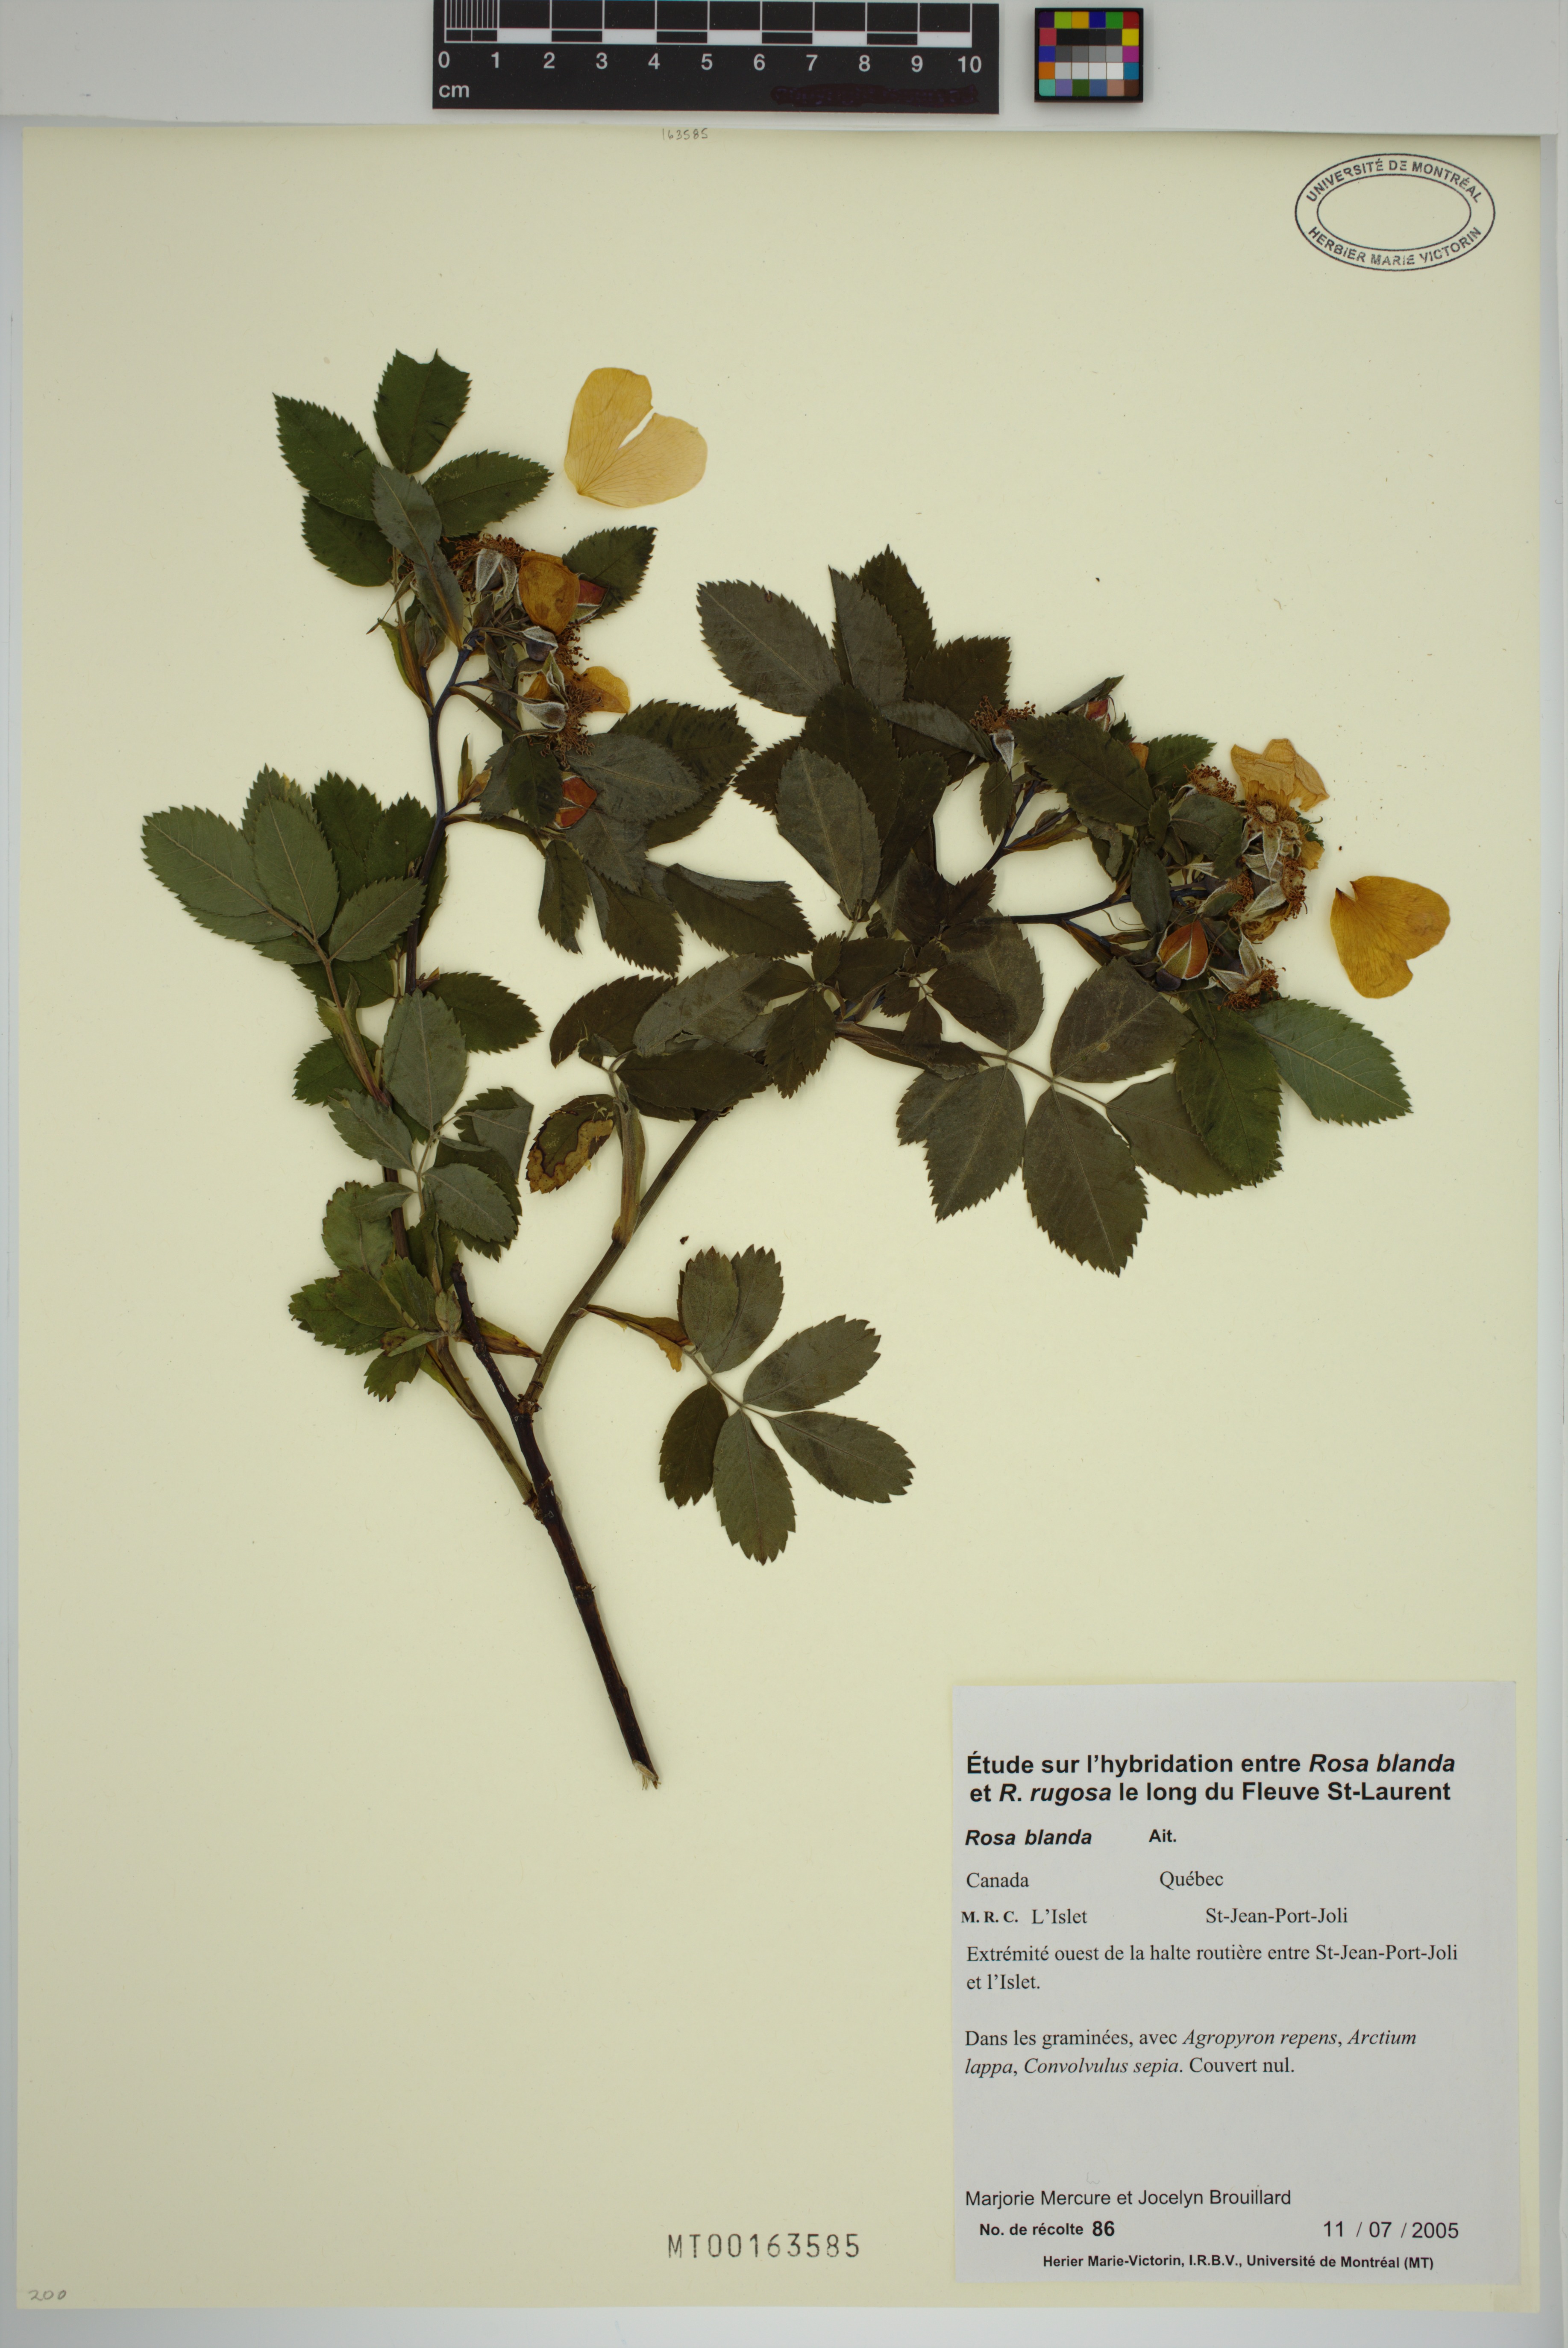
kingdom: Plantae
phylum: Tracheophyta
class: Magnoliopsida
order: Rosales
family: Rosaceae
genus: Rosa
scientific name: Rosa blanda
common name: Smooth rose
